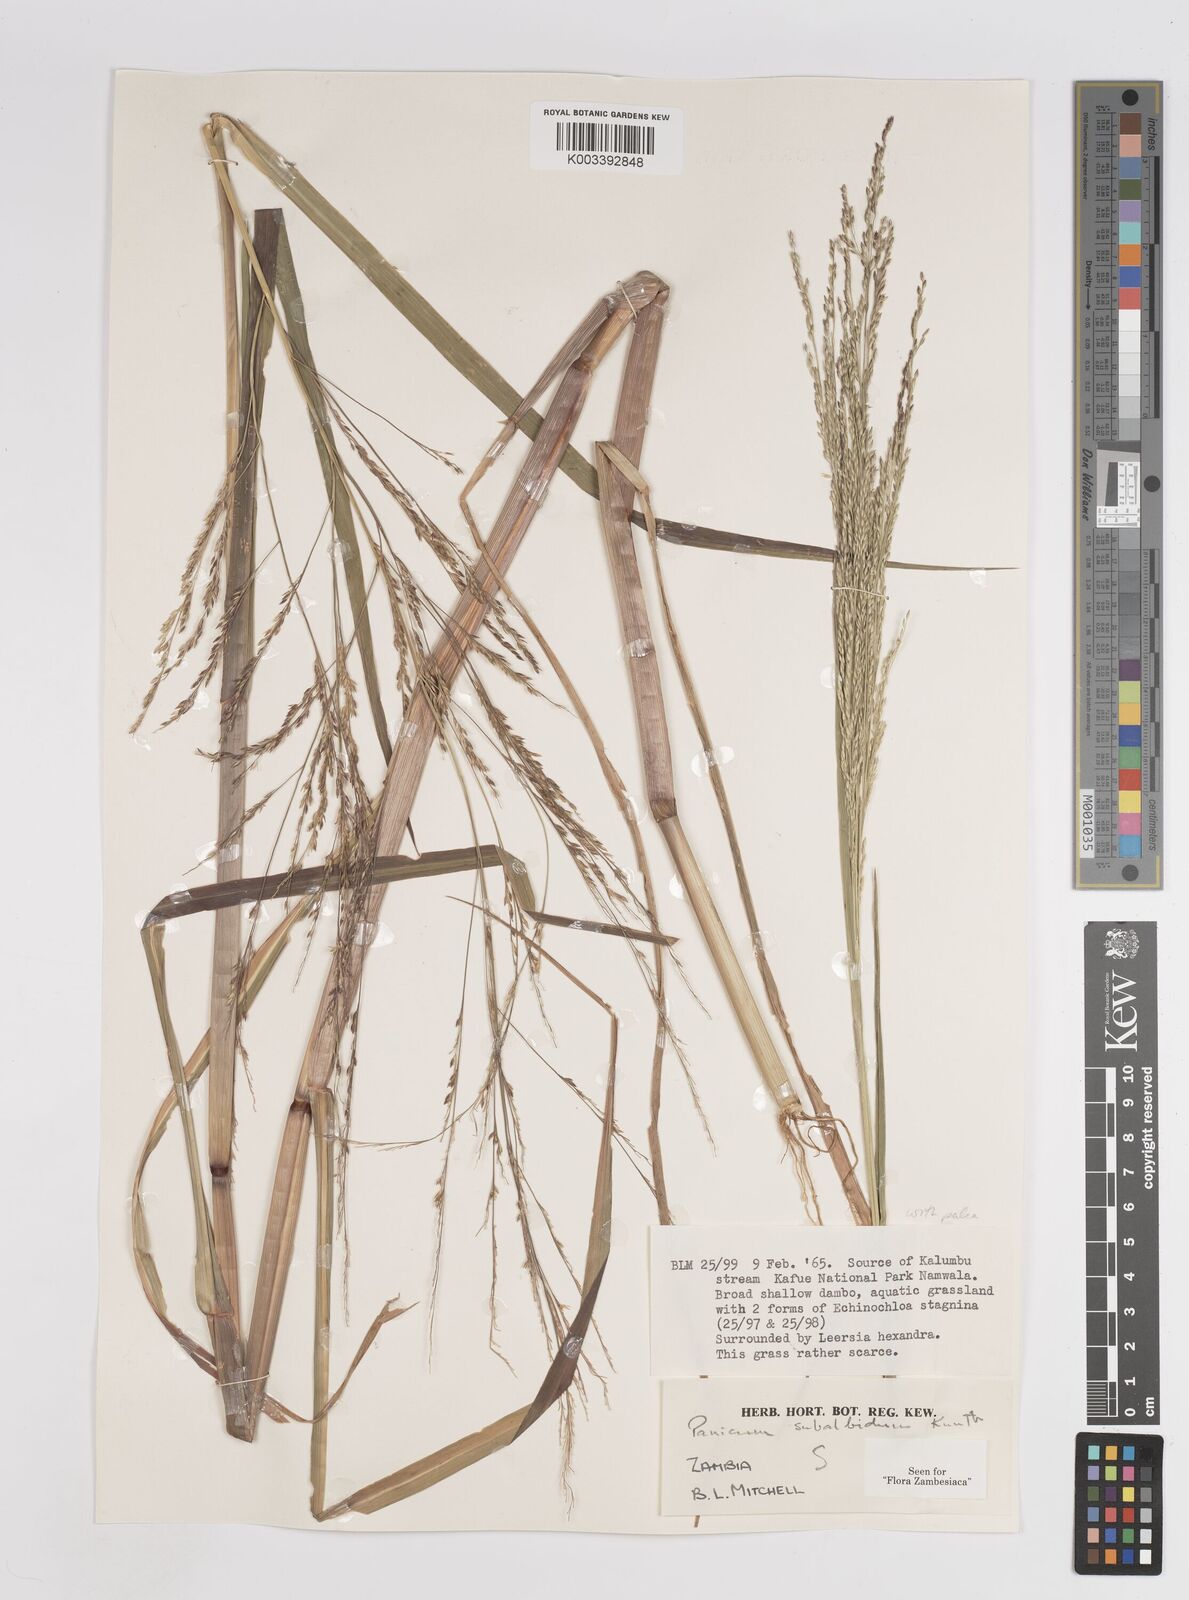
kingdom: Plantae
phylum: Tracheophyta
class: Liliopsida
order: Poales
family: Poaceae
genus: Panicum
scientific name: Panicum subalbidum
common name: Elbow buffalo grass
